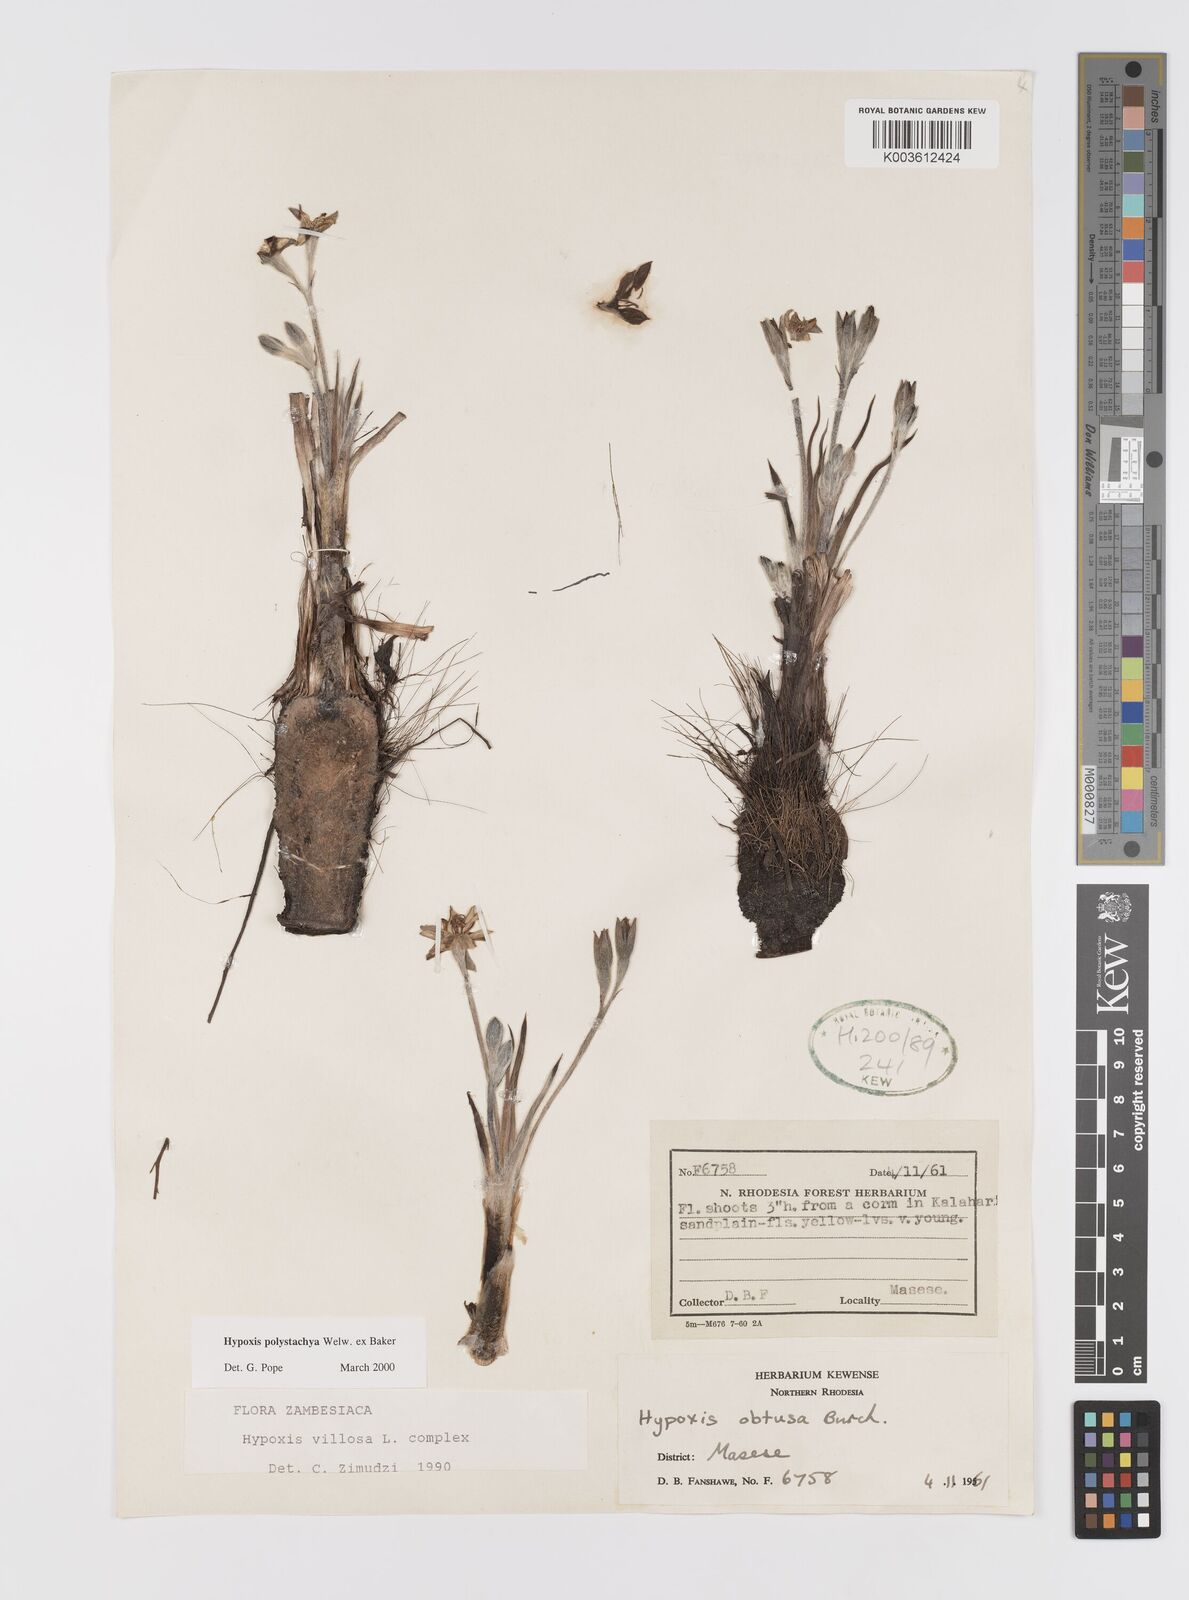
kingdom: Plantae
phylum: Tracheophyta
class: Liliopsida
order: Asparagales
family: Hypoxidaceae
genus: Hypoxis
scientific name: Hypoxis polystachya
